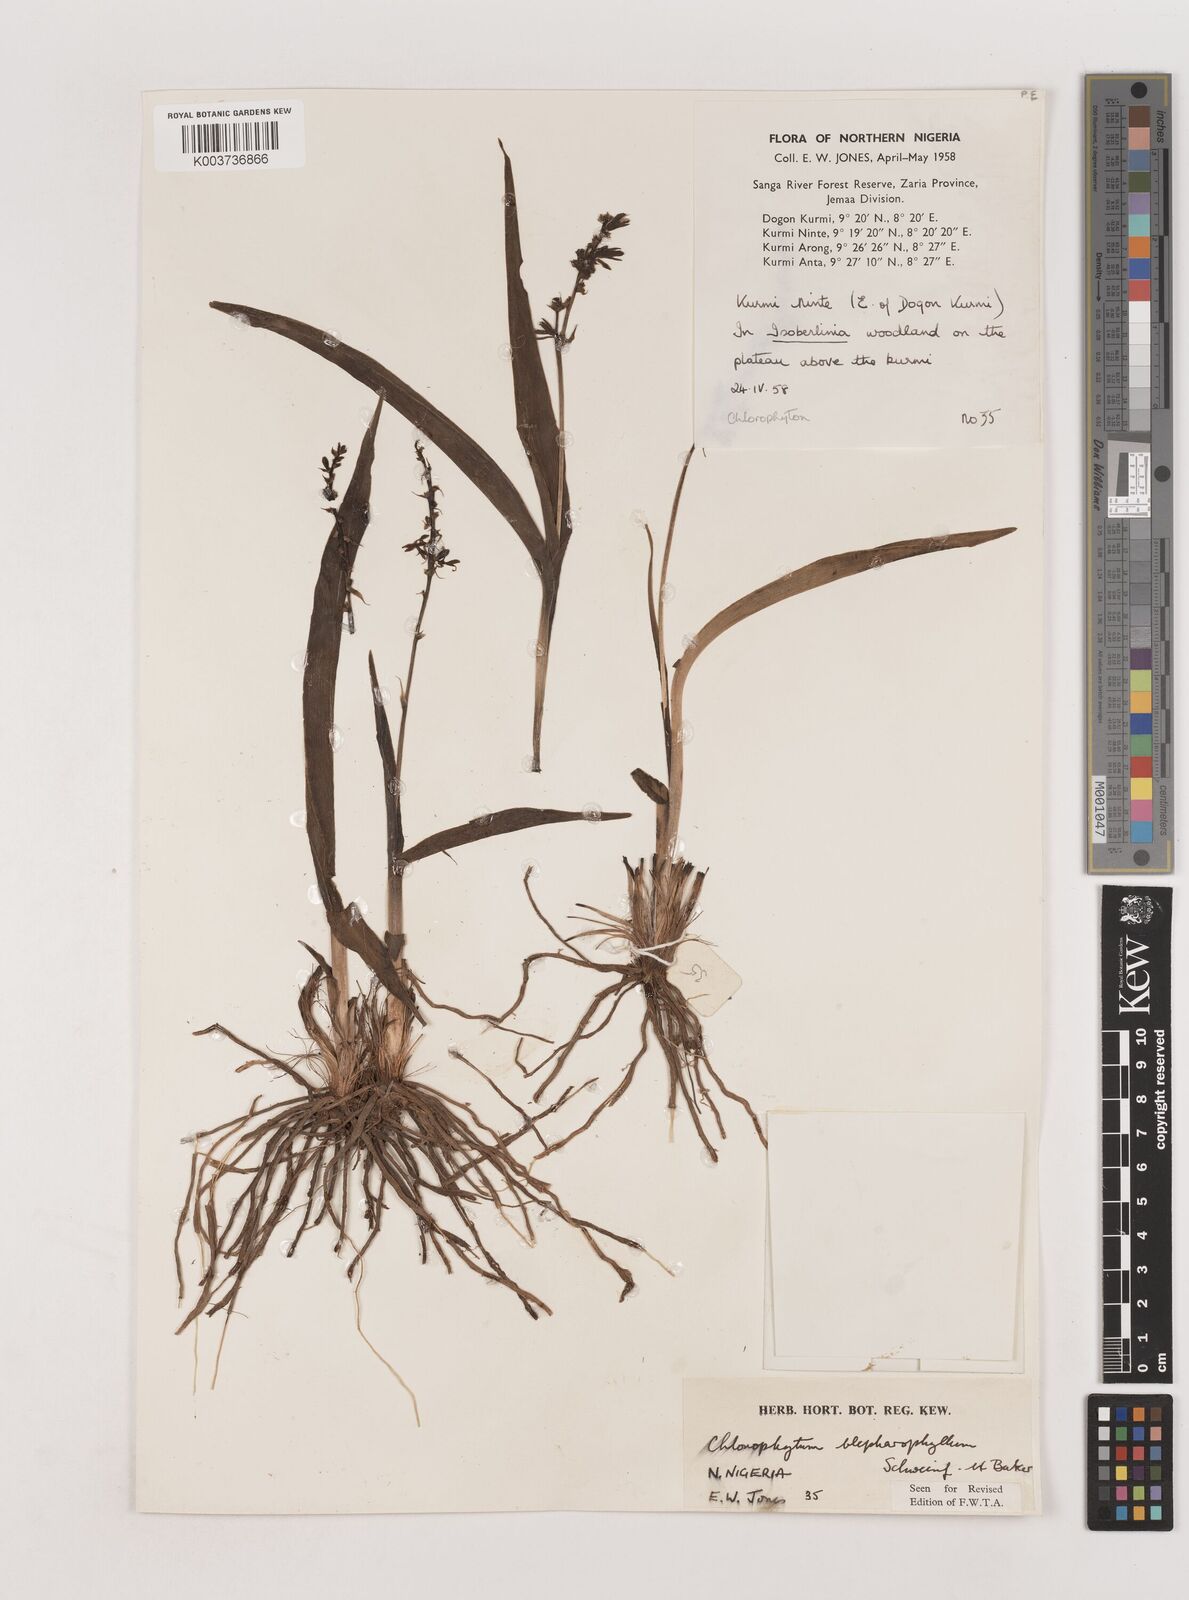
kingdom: Plantae
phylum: Tracheophyta
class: Liliopsida
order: Asparagales
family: Asparagaceae
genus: Chlorophytum
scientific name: Chlorophytum blepharophyllum
